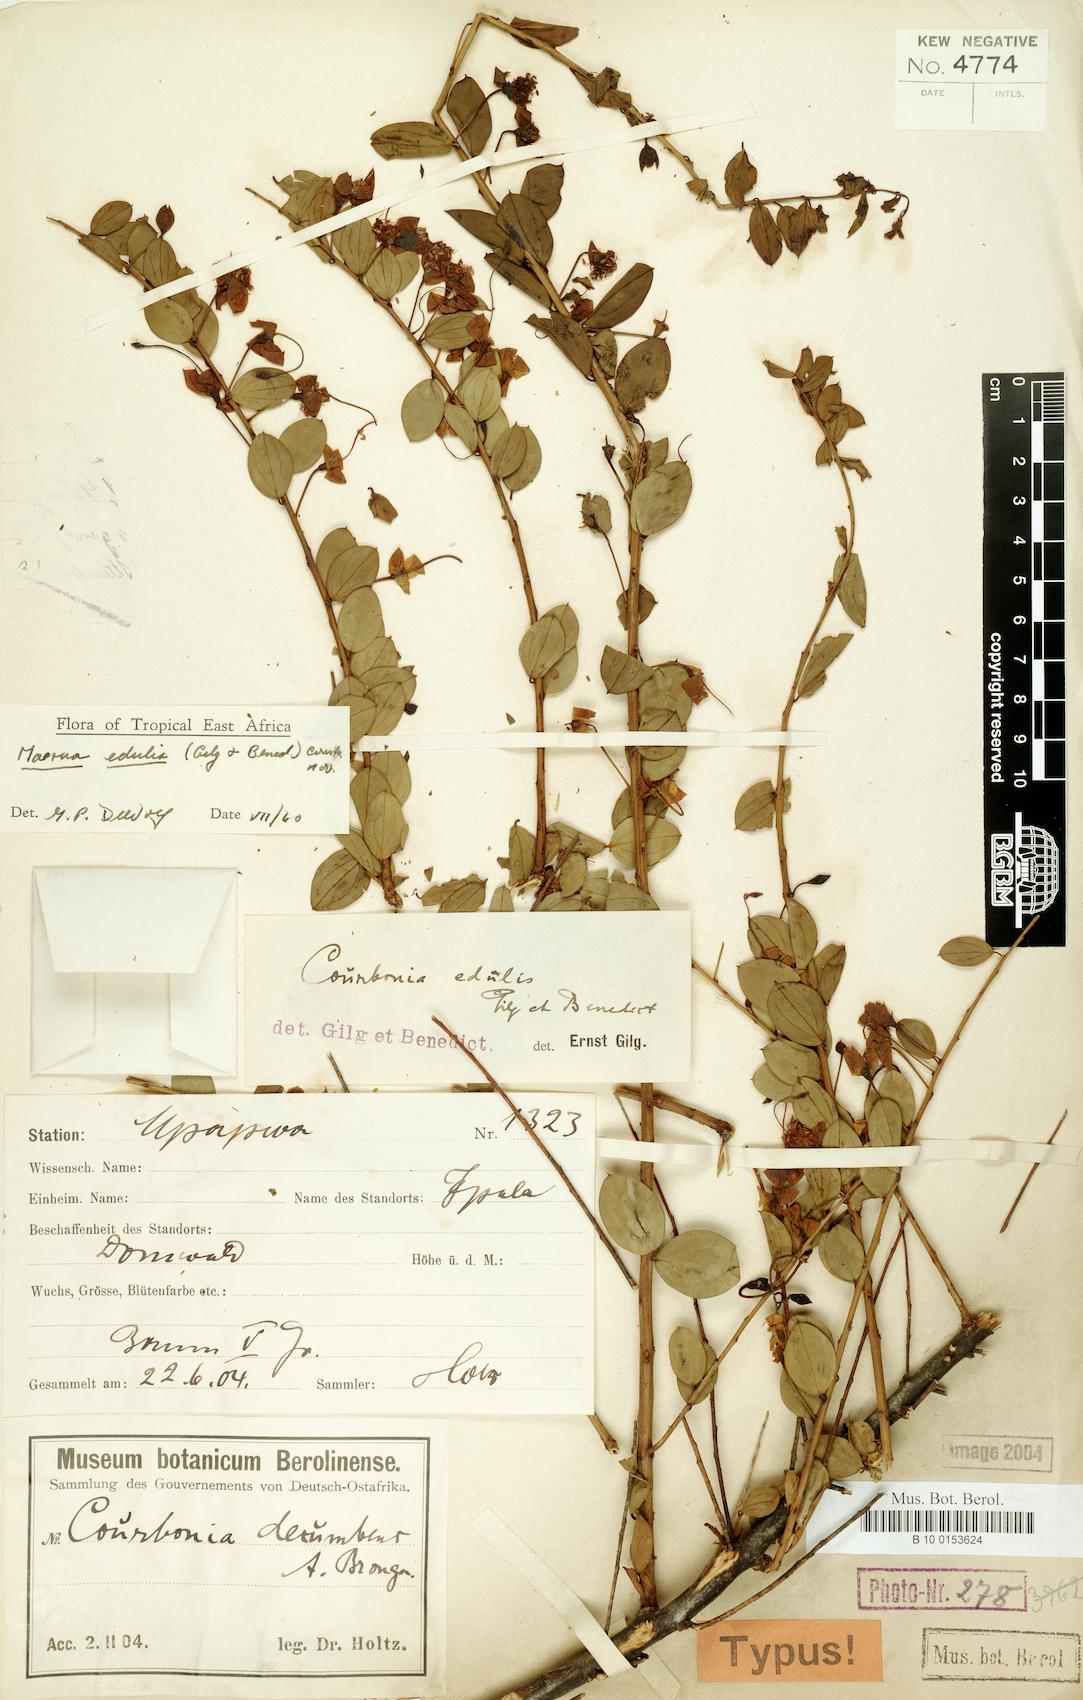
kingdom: Plantae
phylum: Tracheophyta
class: Magnoliopsida
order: Brassicales
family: Capparaceae
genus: Maerua
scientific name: Maerua edulis
